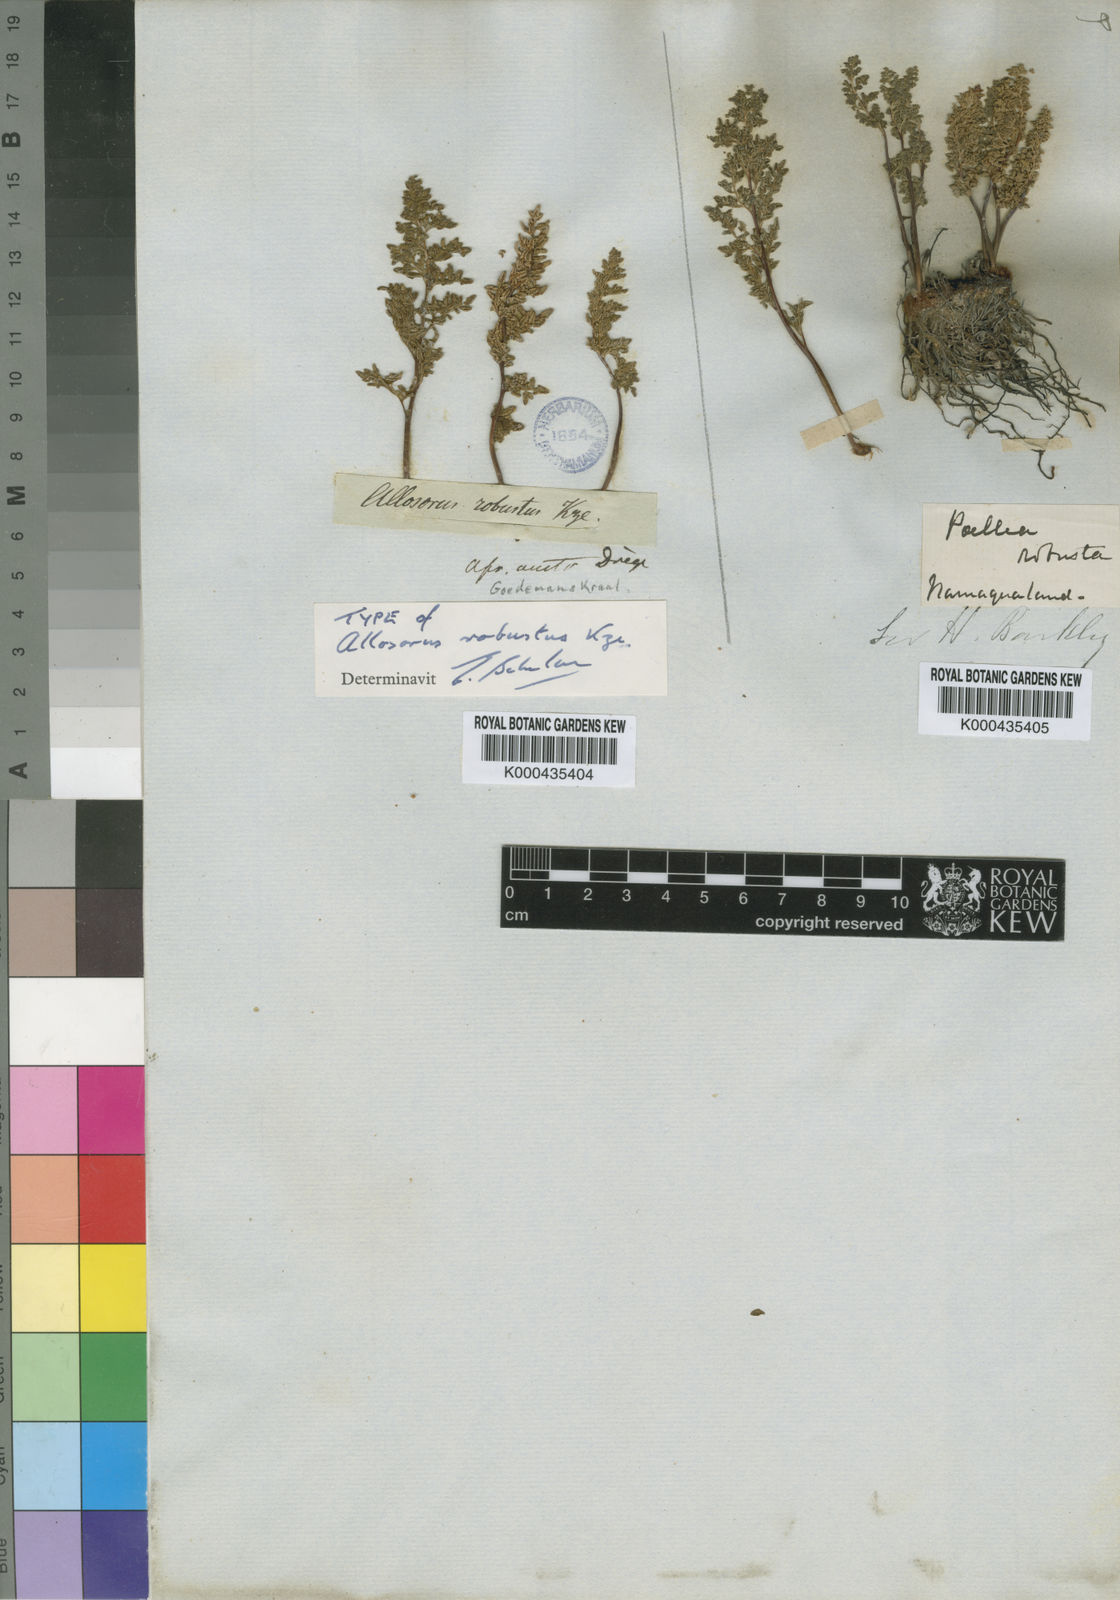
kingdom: Plantae
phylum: Tracheophyta
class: Polypodiopsida
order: Polypodiales
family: Pteridaceae
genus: Cheilanthes
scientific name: Cheilanthes robusta
